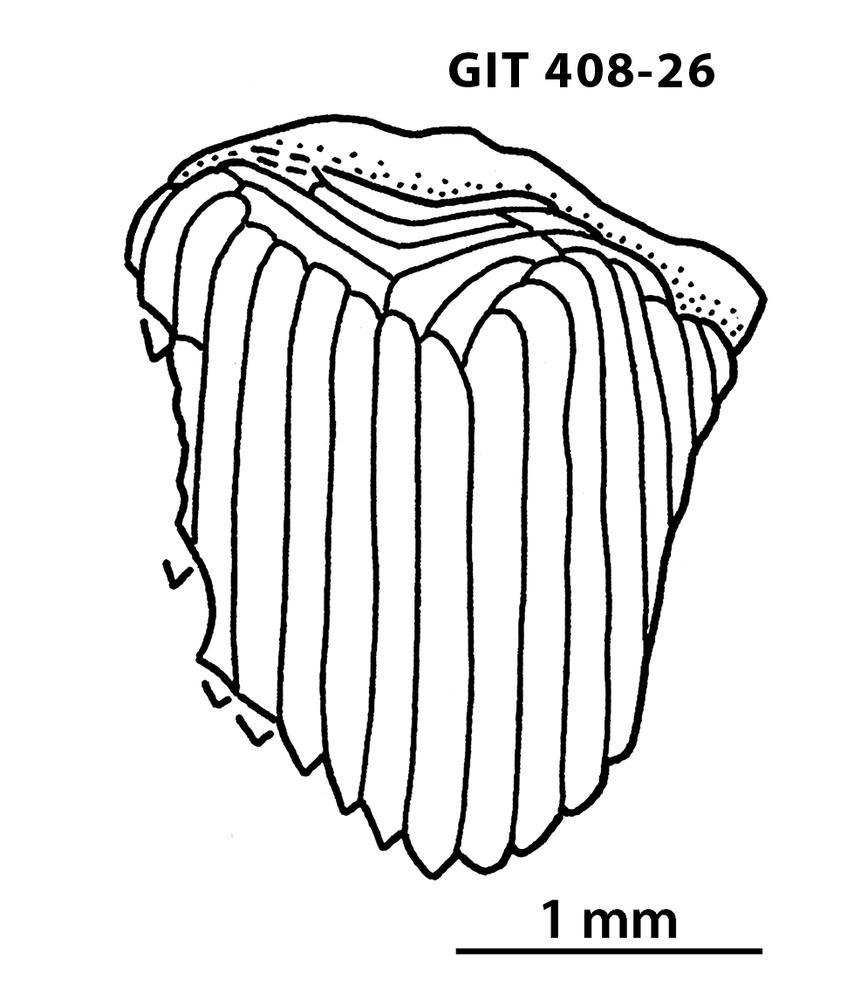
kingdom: Animalia
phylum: Chordata
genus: Archegonaspis
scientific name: Archegonaspis
